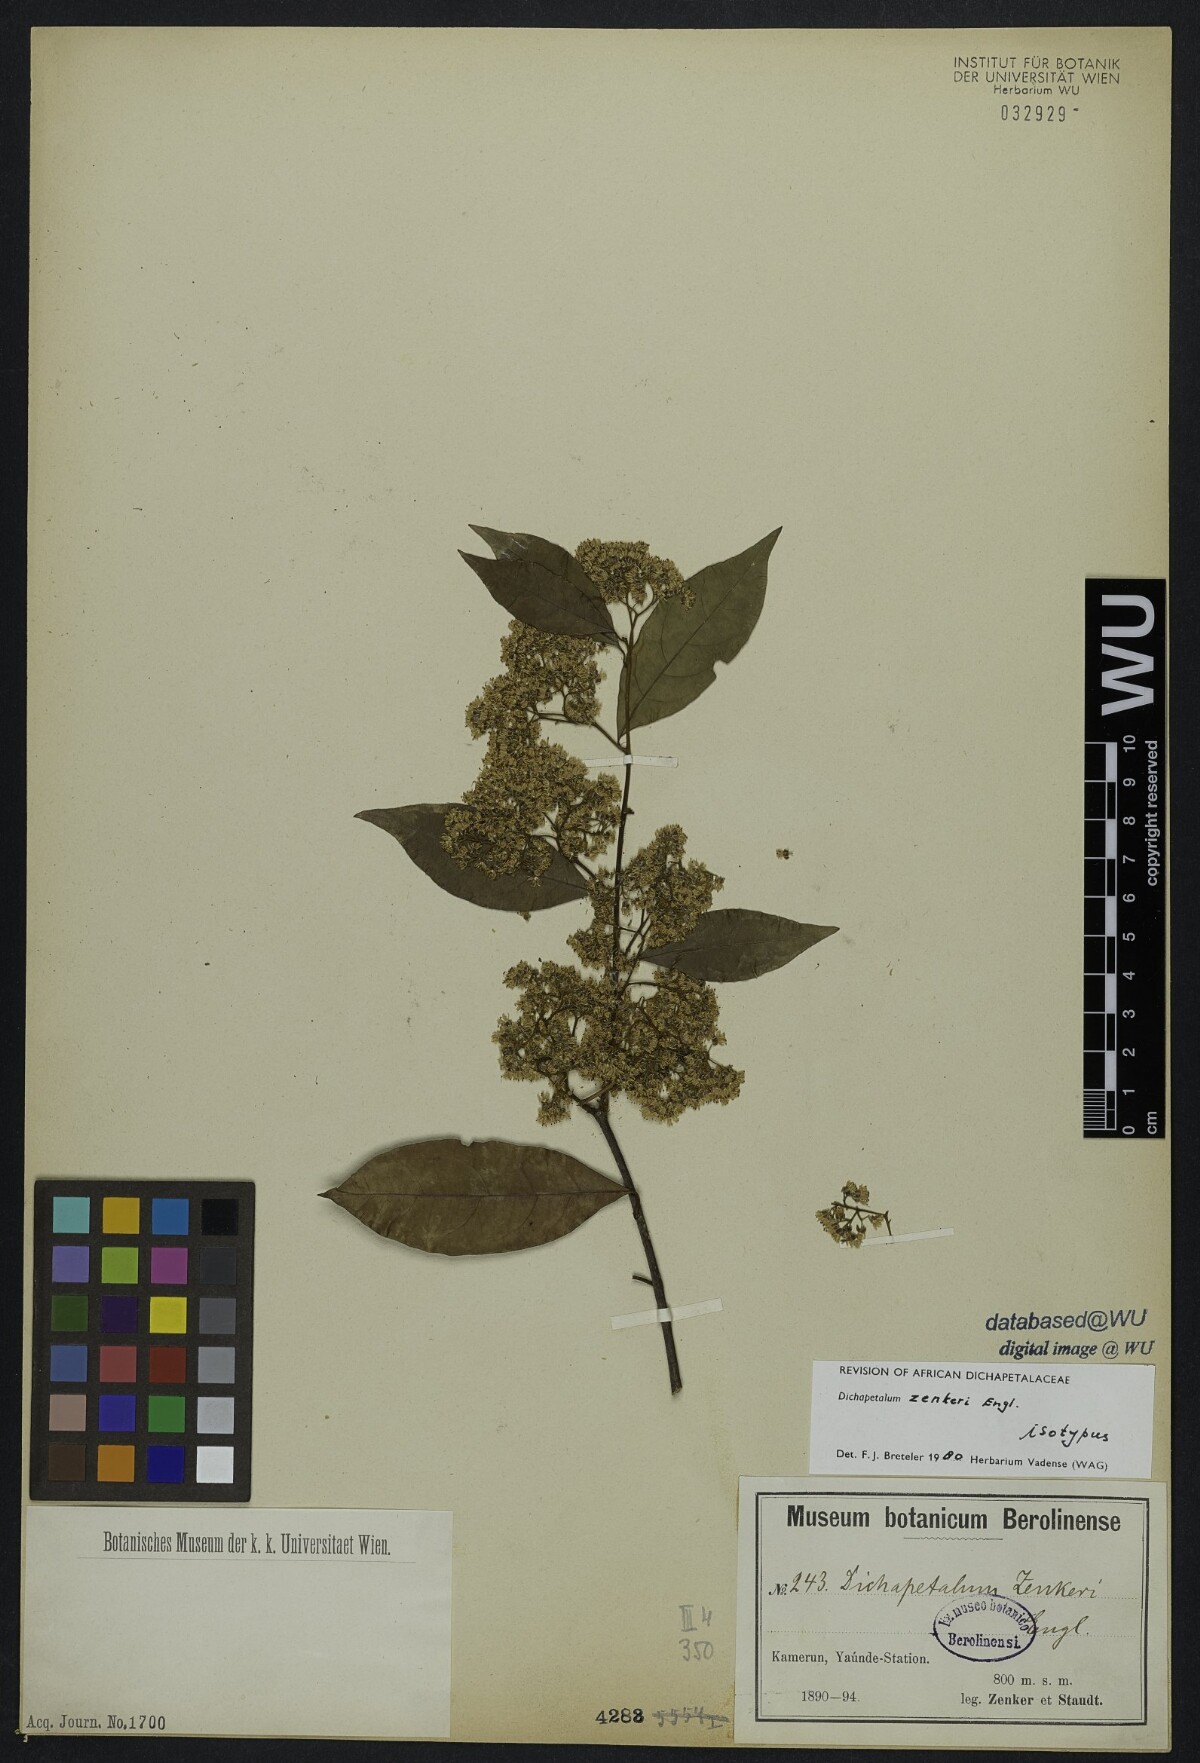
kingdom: Plantae
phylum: Tracheophyta
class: Magnoliopsida
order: Malpighiales
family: Dichapetalaceae
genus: Dichapetalum
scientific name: Dichapetalum zenkeri
